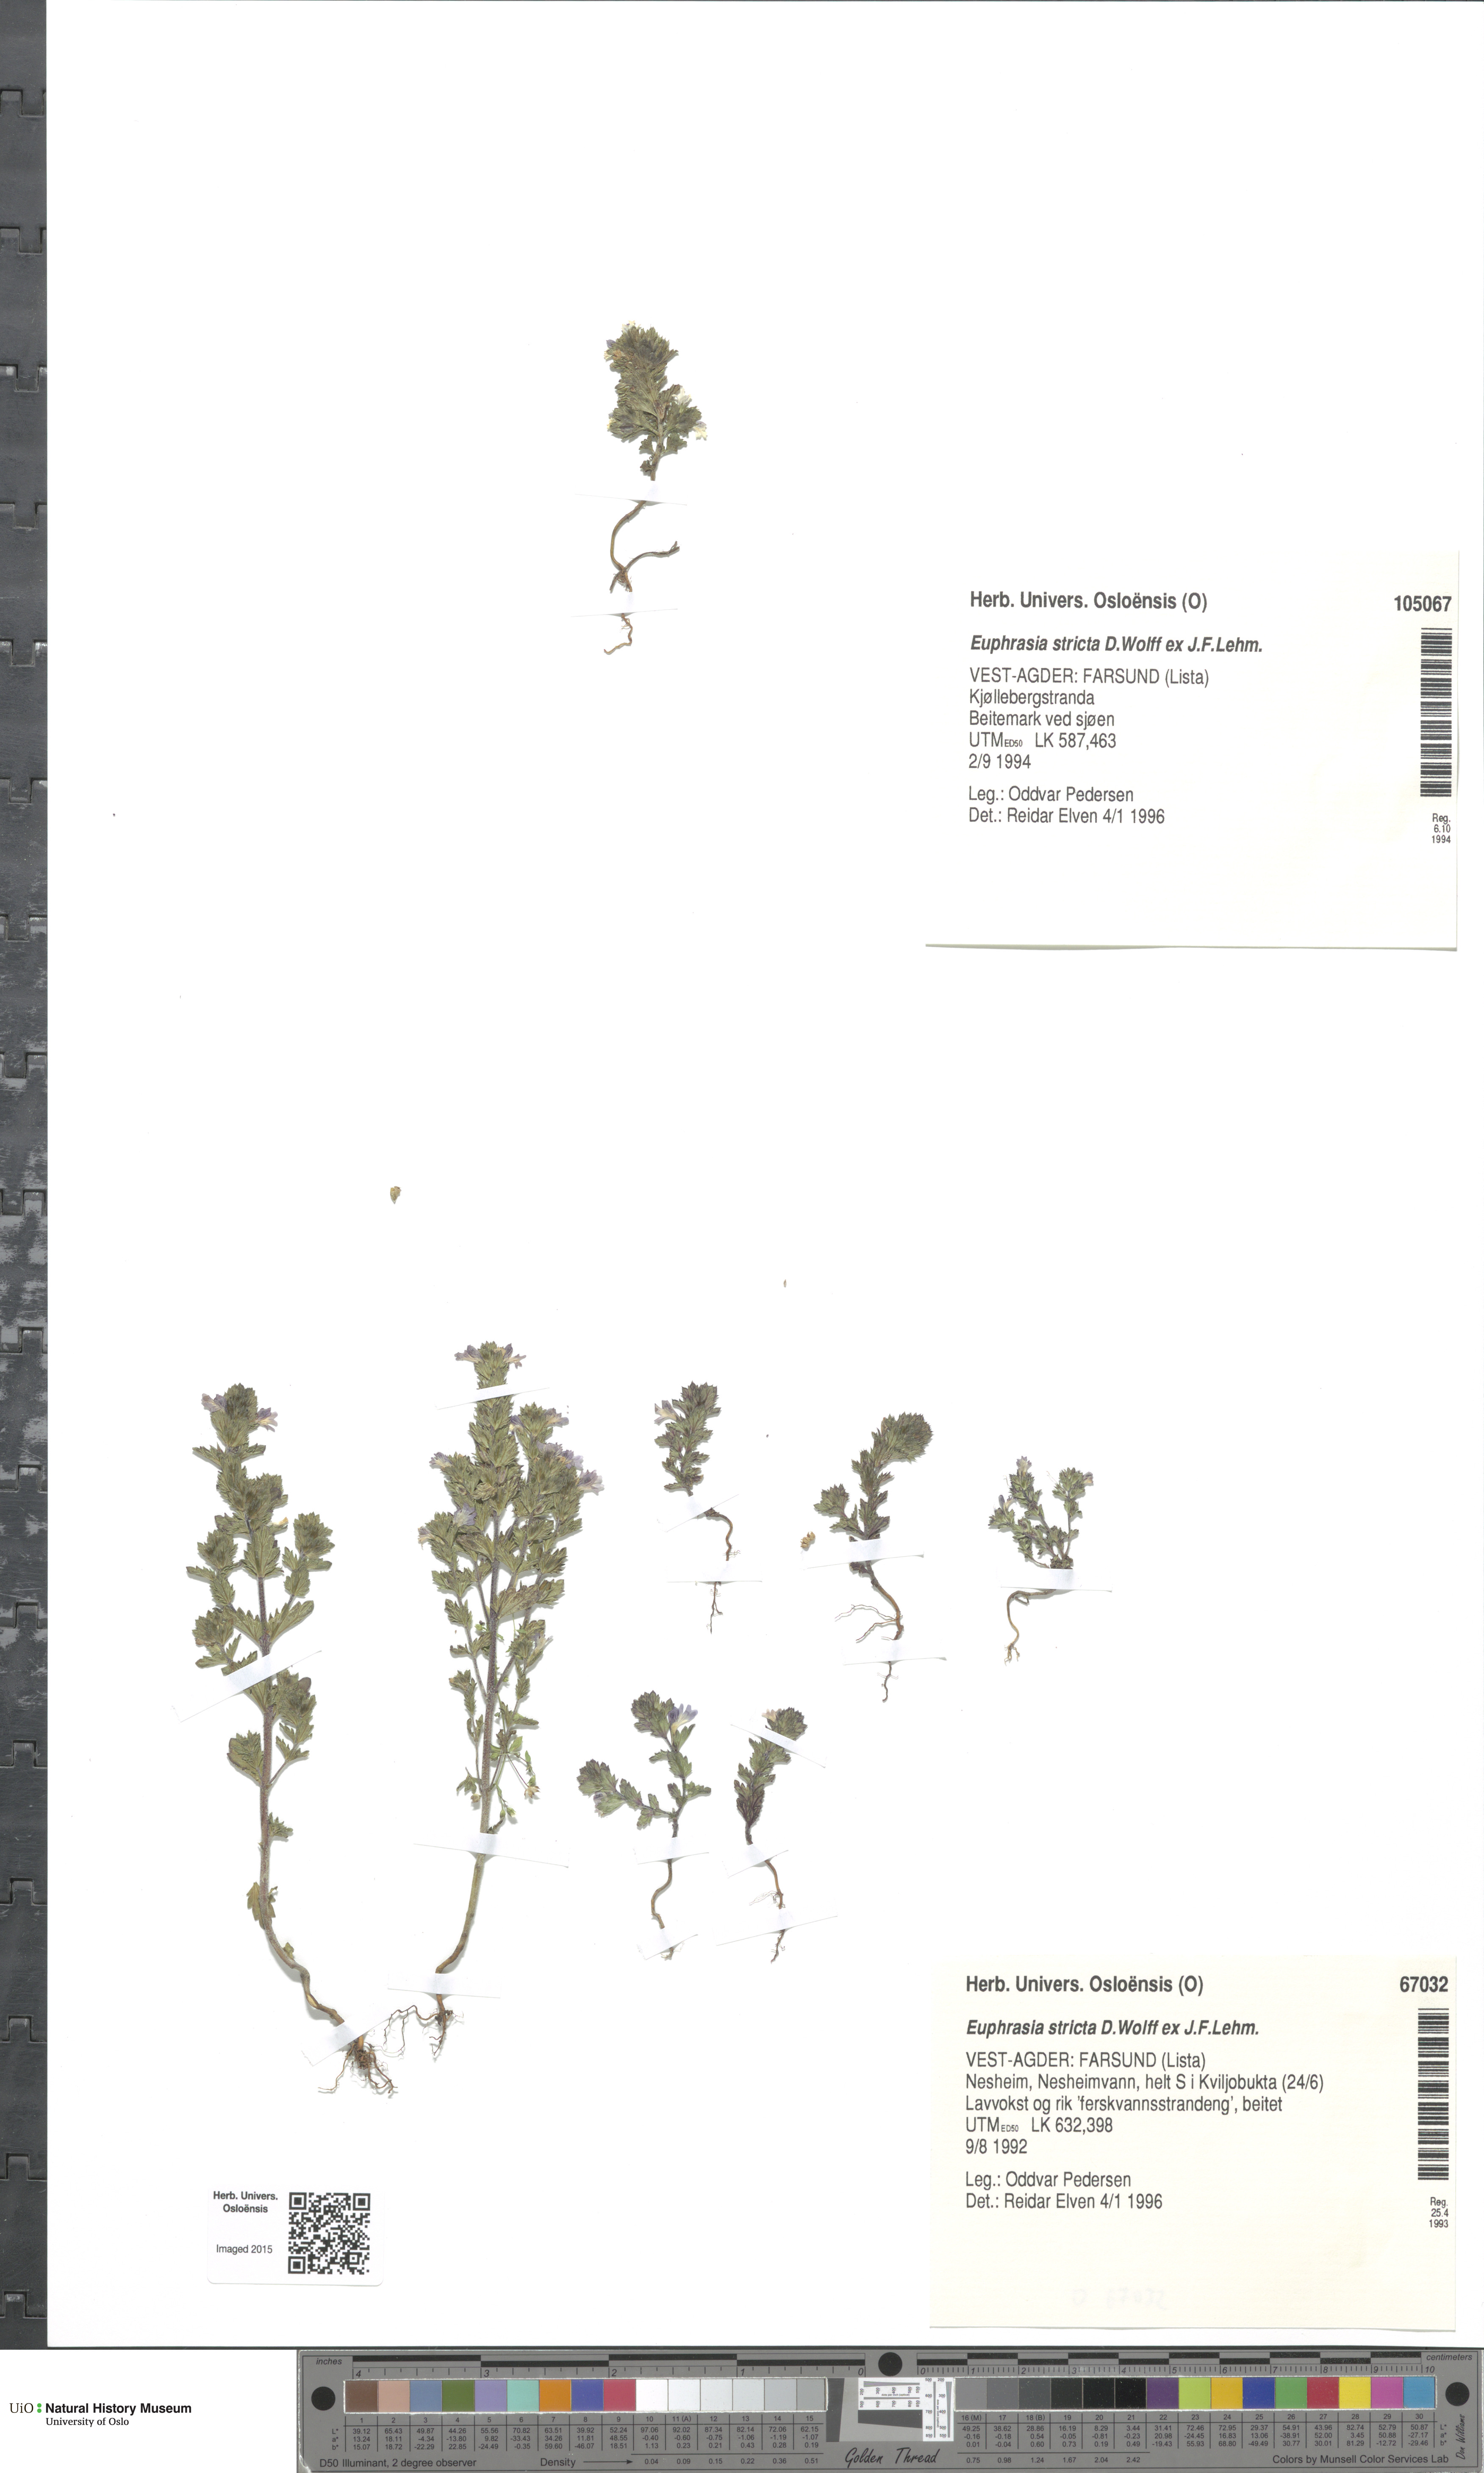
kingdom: Plantae
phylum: Tracheophyta
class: Magnoliopsida
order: Lamiales
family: Orobanchaceae
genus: Euphrasia
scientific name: Euphrasia stricta
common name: Drug eyebright
